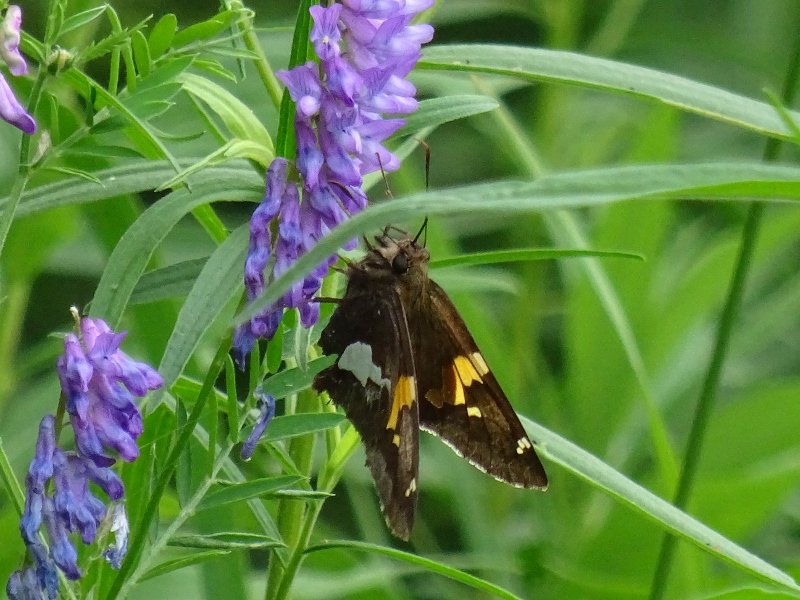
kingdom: Animalia
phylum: Arthropoda
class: Insecta
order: Lepidoptera
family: Hesperiidae
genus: Epargyreus
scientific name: Epargyreus clarus
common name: Silver-spotted Skipper
